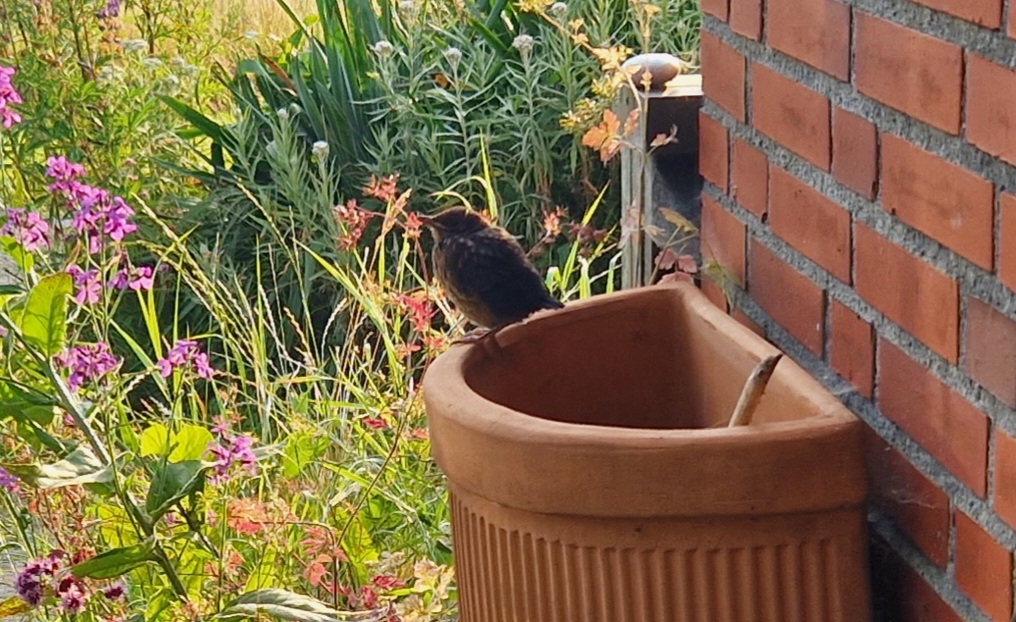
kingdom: Animalia
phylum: Chordata
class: Aves
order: Passeriformes
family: Turdidae
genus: Turdus
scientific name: Turdus merula
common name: Solsort
